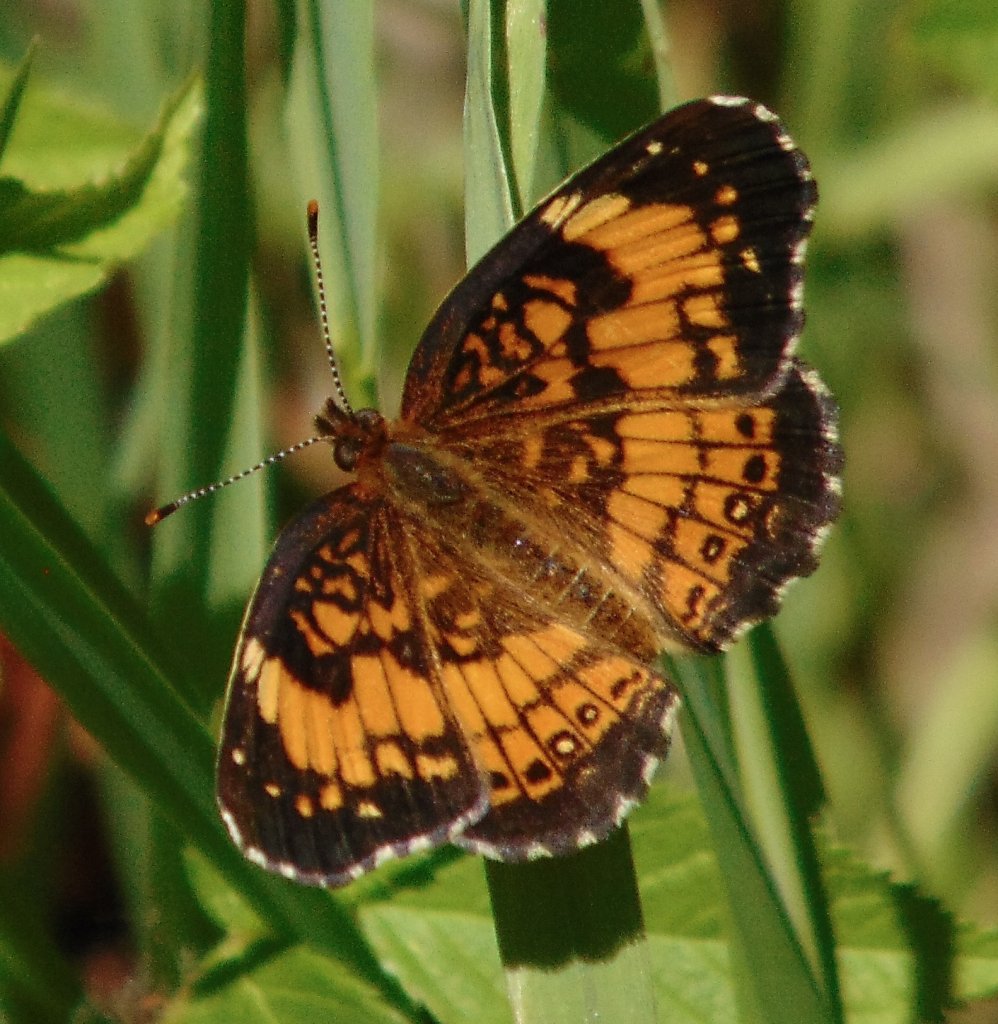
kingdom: Animalia
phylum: Arthropoda
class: Insecta
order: Lepidoptera
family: Nymphalidae
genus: Chlosyne
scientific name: Chlosyne nycteis
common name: Silvery Checkerspot
